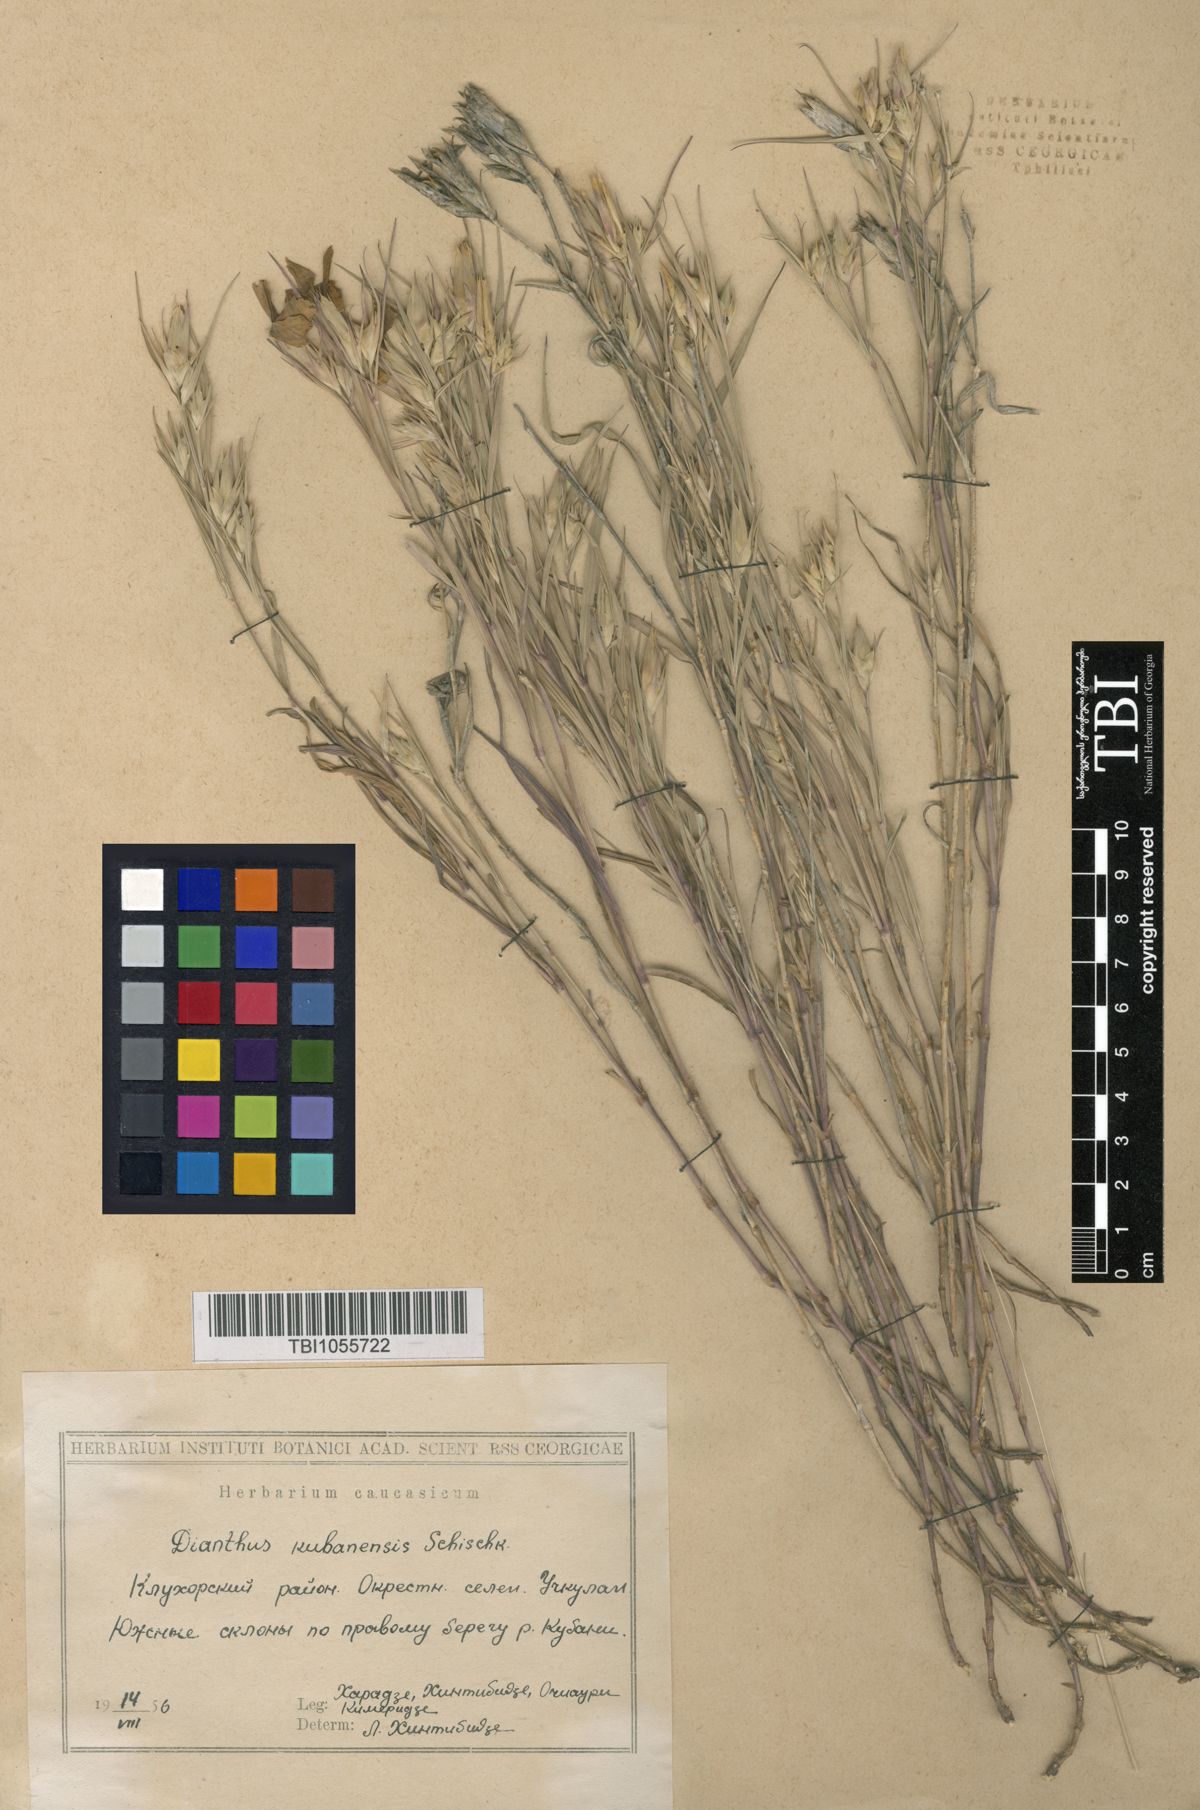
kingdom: Plantae
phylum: Tracheophyta
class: Magnoliopsida
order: Caryophyllales
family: Caryophyllaceae
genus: Dianthus
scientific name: Dianthus
